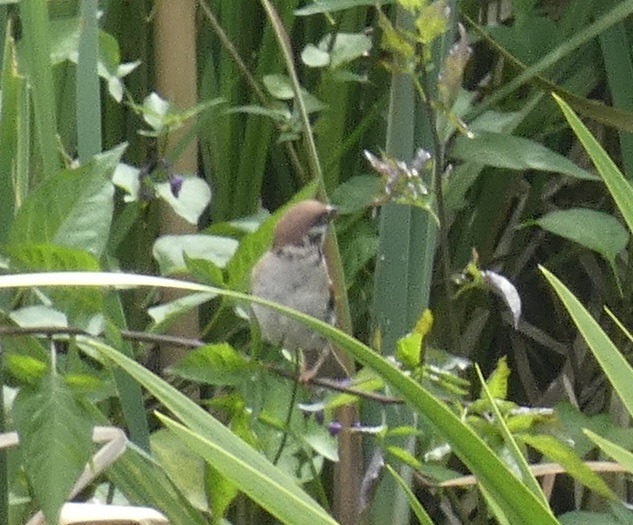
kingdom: Animalia
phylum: Chordata
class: Aves
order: Passeriformes
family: Passeridae
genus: Passer
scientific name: Passer montanus
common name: Skovspurv
